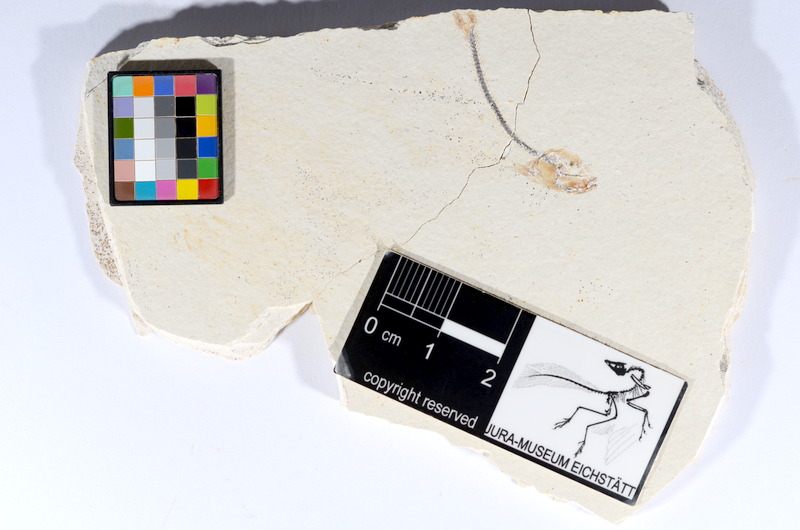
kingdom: Animalia
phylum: Chordata
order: Salmoniformes
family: Orthogonikleithridae
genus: Orthogonikleithrus
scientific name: Orthogonikleithrus hoelli
